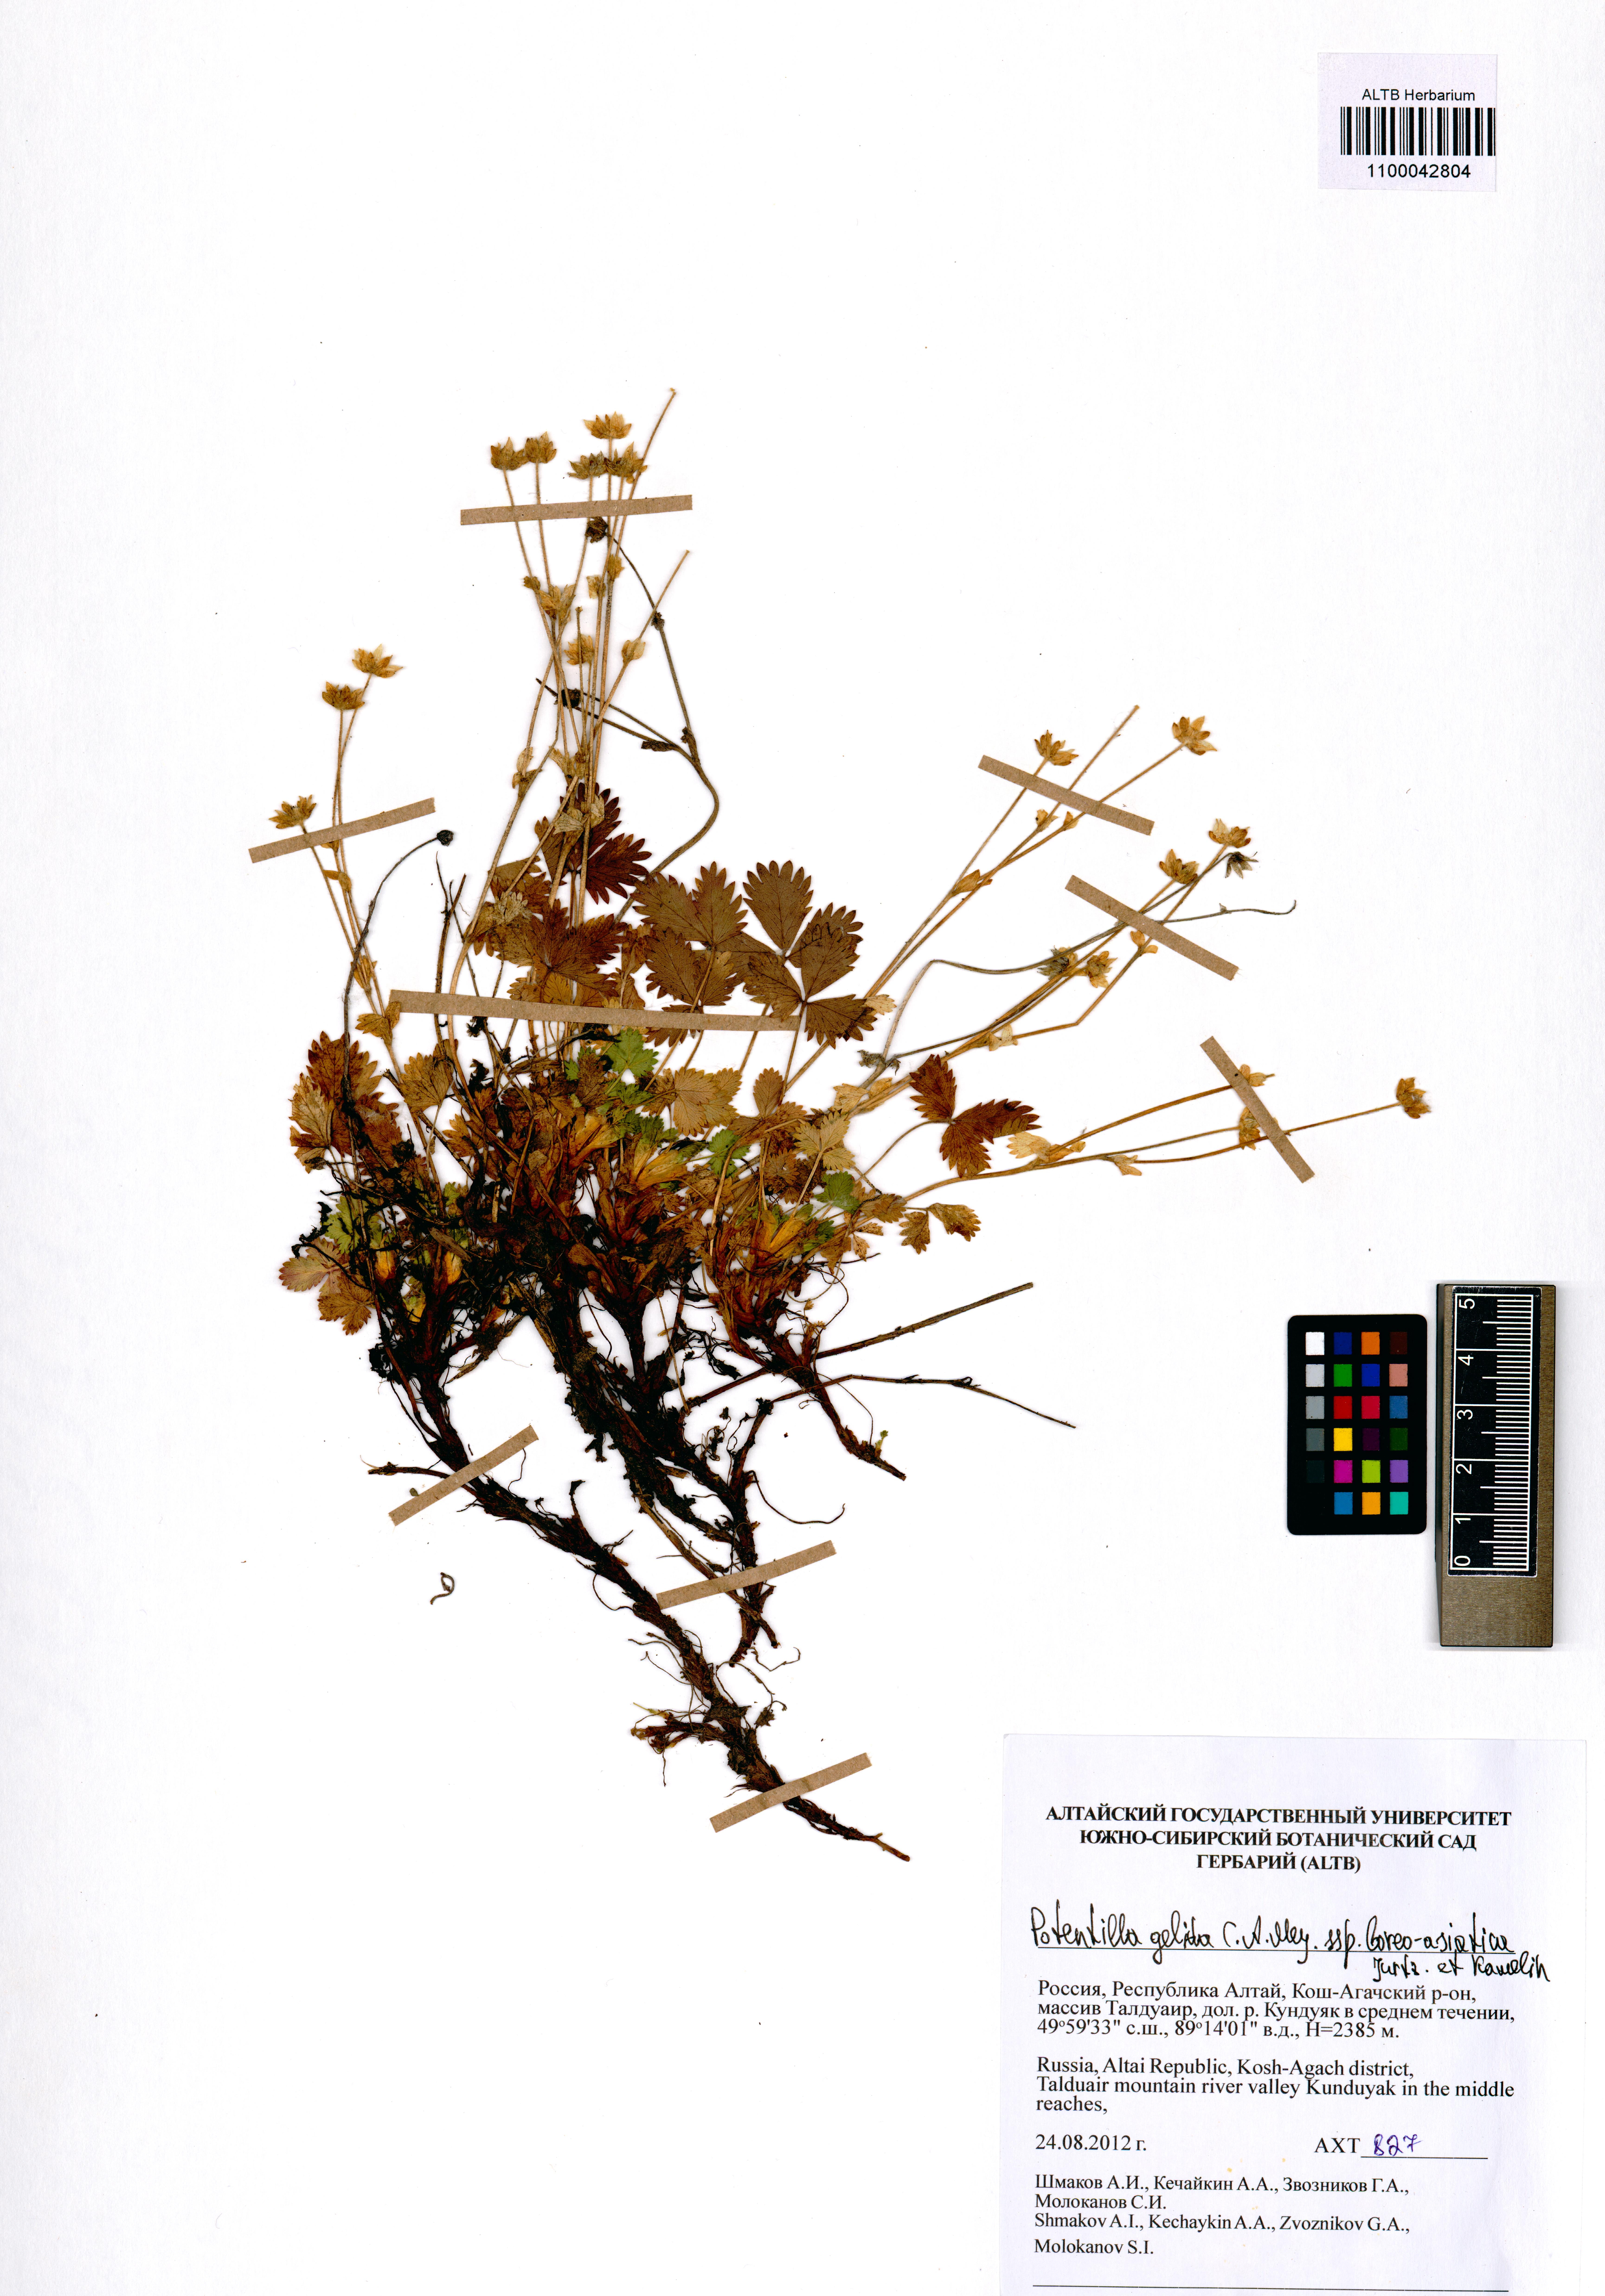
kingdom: Plantae
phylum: Tracheophyta
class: Magnoliopsida
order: Rosales
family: Rosaceae
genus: Potentilla
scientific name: Potentilla crantzii
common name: Alpine cinquefoil
